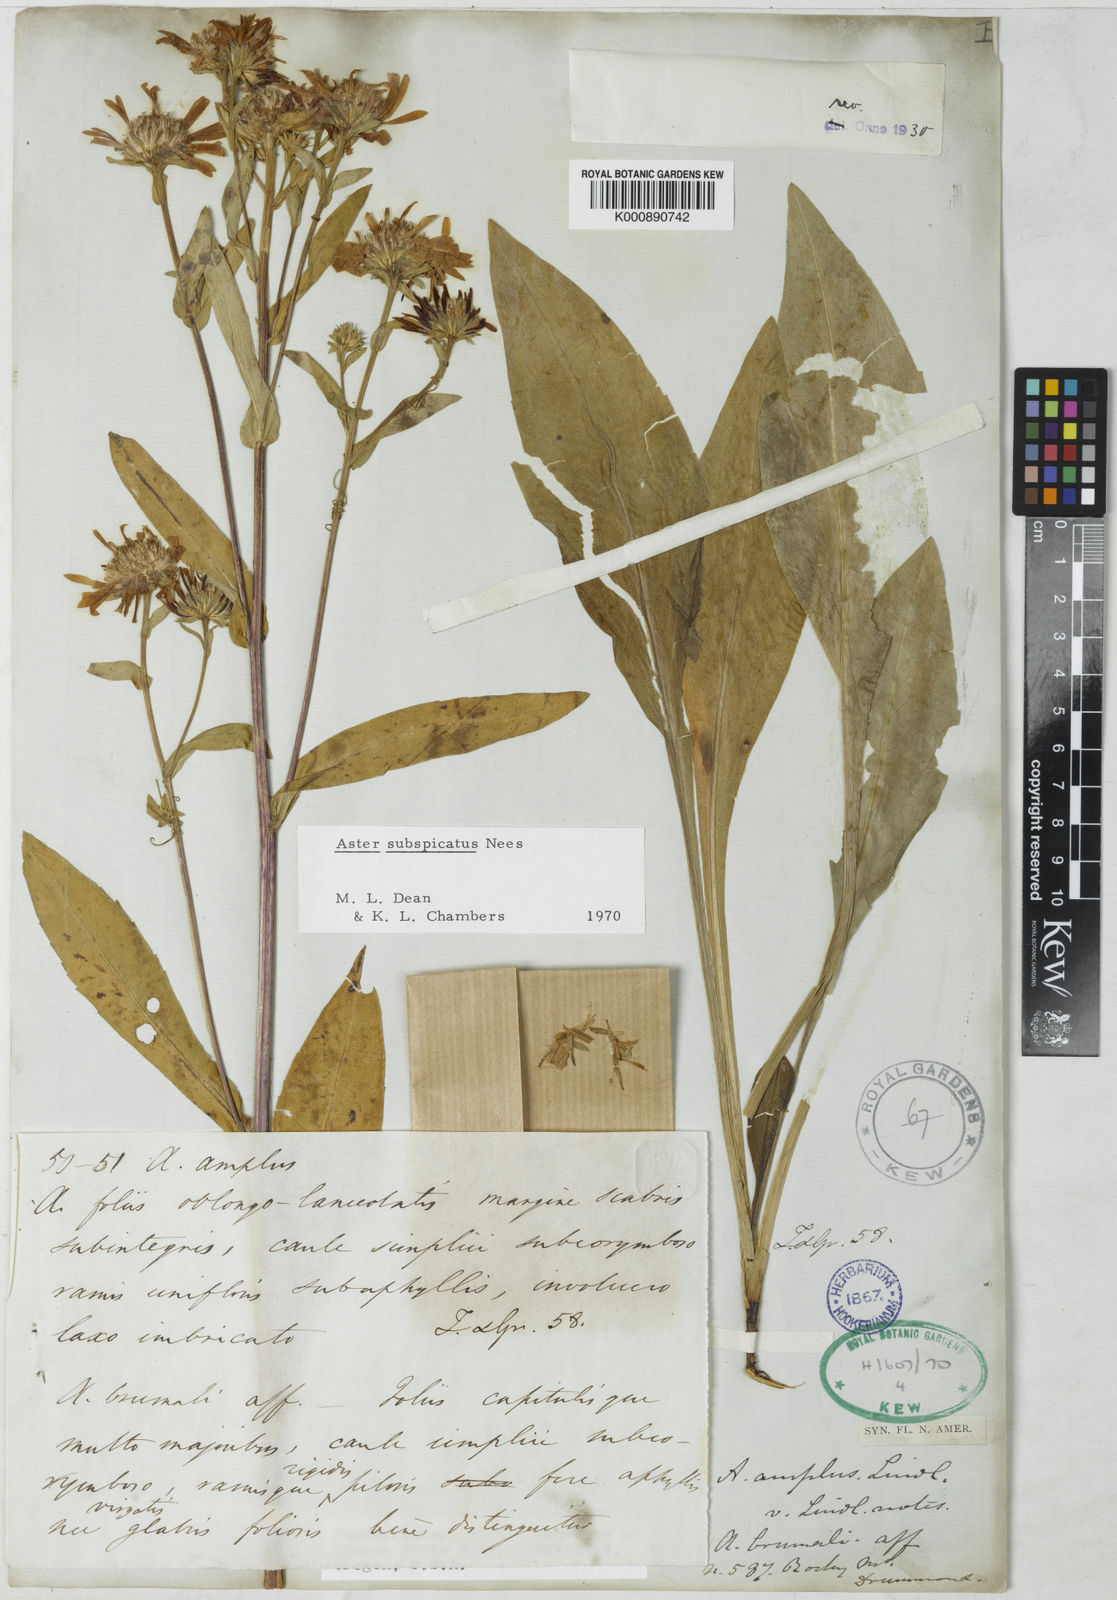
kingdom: Plantae
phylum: Tracheophyta
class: Magnoliopsida
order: Asterales
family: Asteraceae
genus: Symphyotrichum
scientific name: Symphyotrichum subspicatum
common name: Douglas' aster
